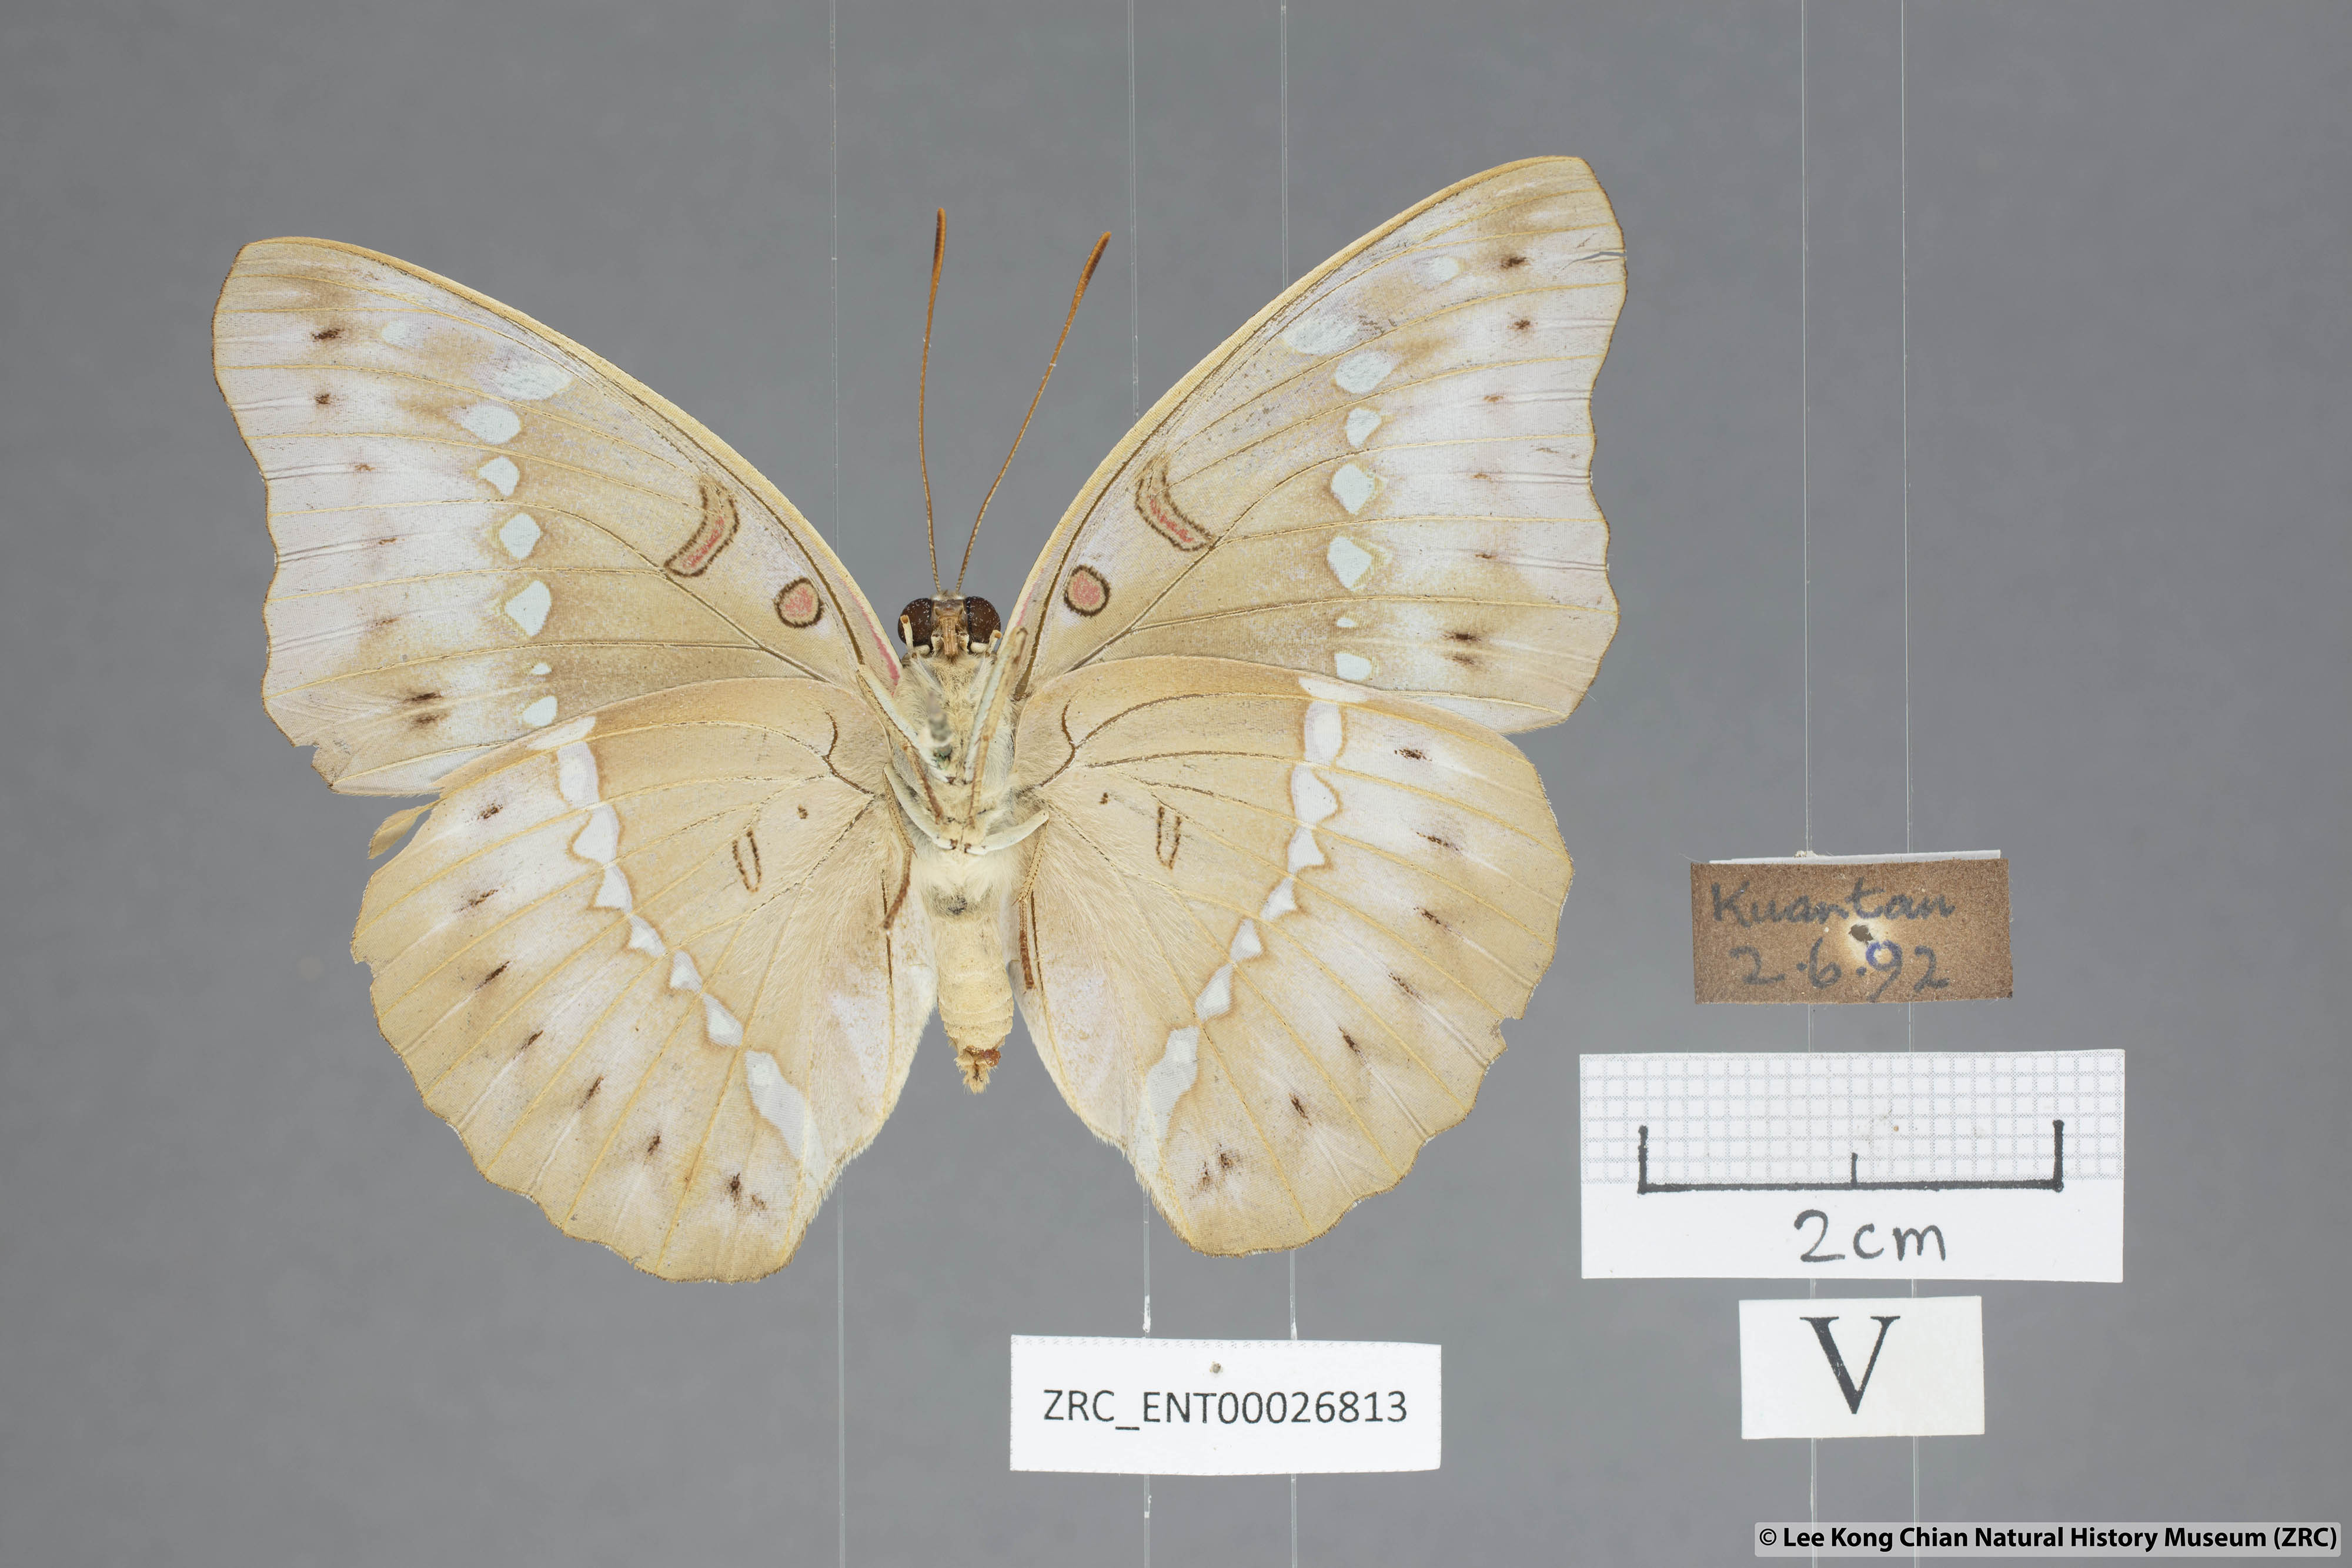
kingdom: Animalia
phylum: Arthropoda
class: Insecta
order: Lepidoptera
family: Nymphalidae
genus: Euthalia
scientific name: Euthalia Bassarona teuta
